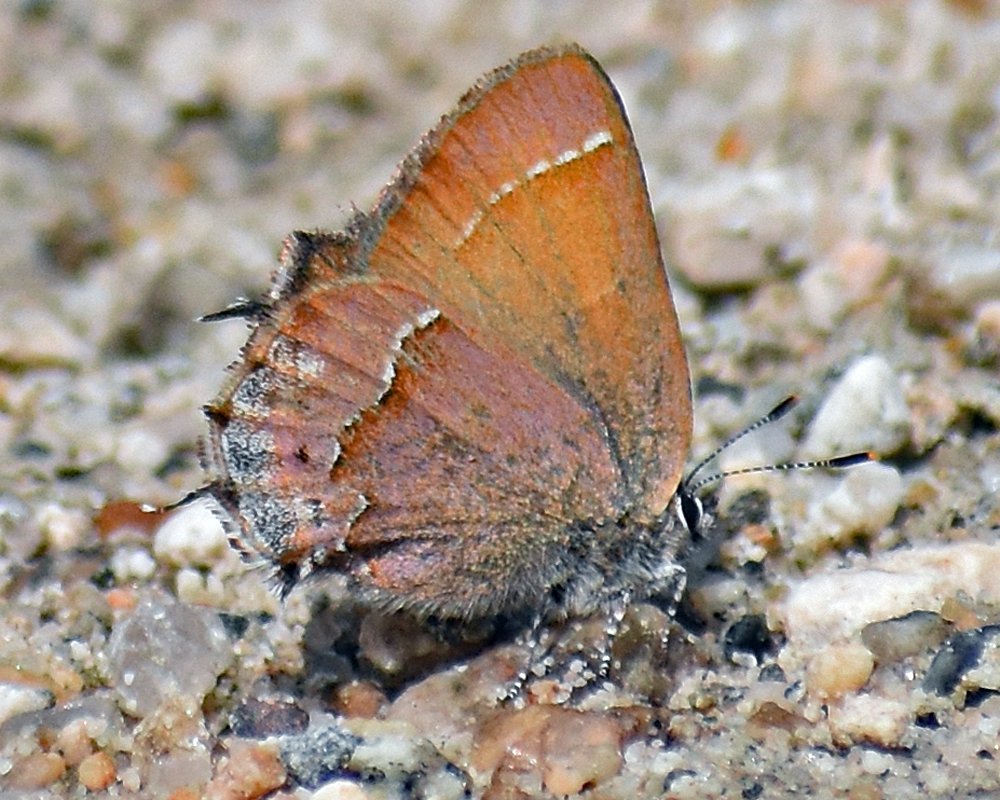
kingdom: Animalia
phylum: Arthropoda
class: Insecta
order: Lepidoptera
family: Lycaenidae
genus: Mitoura
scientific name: Mitoura nelsoni
